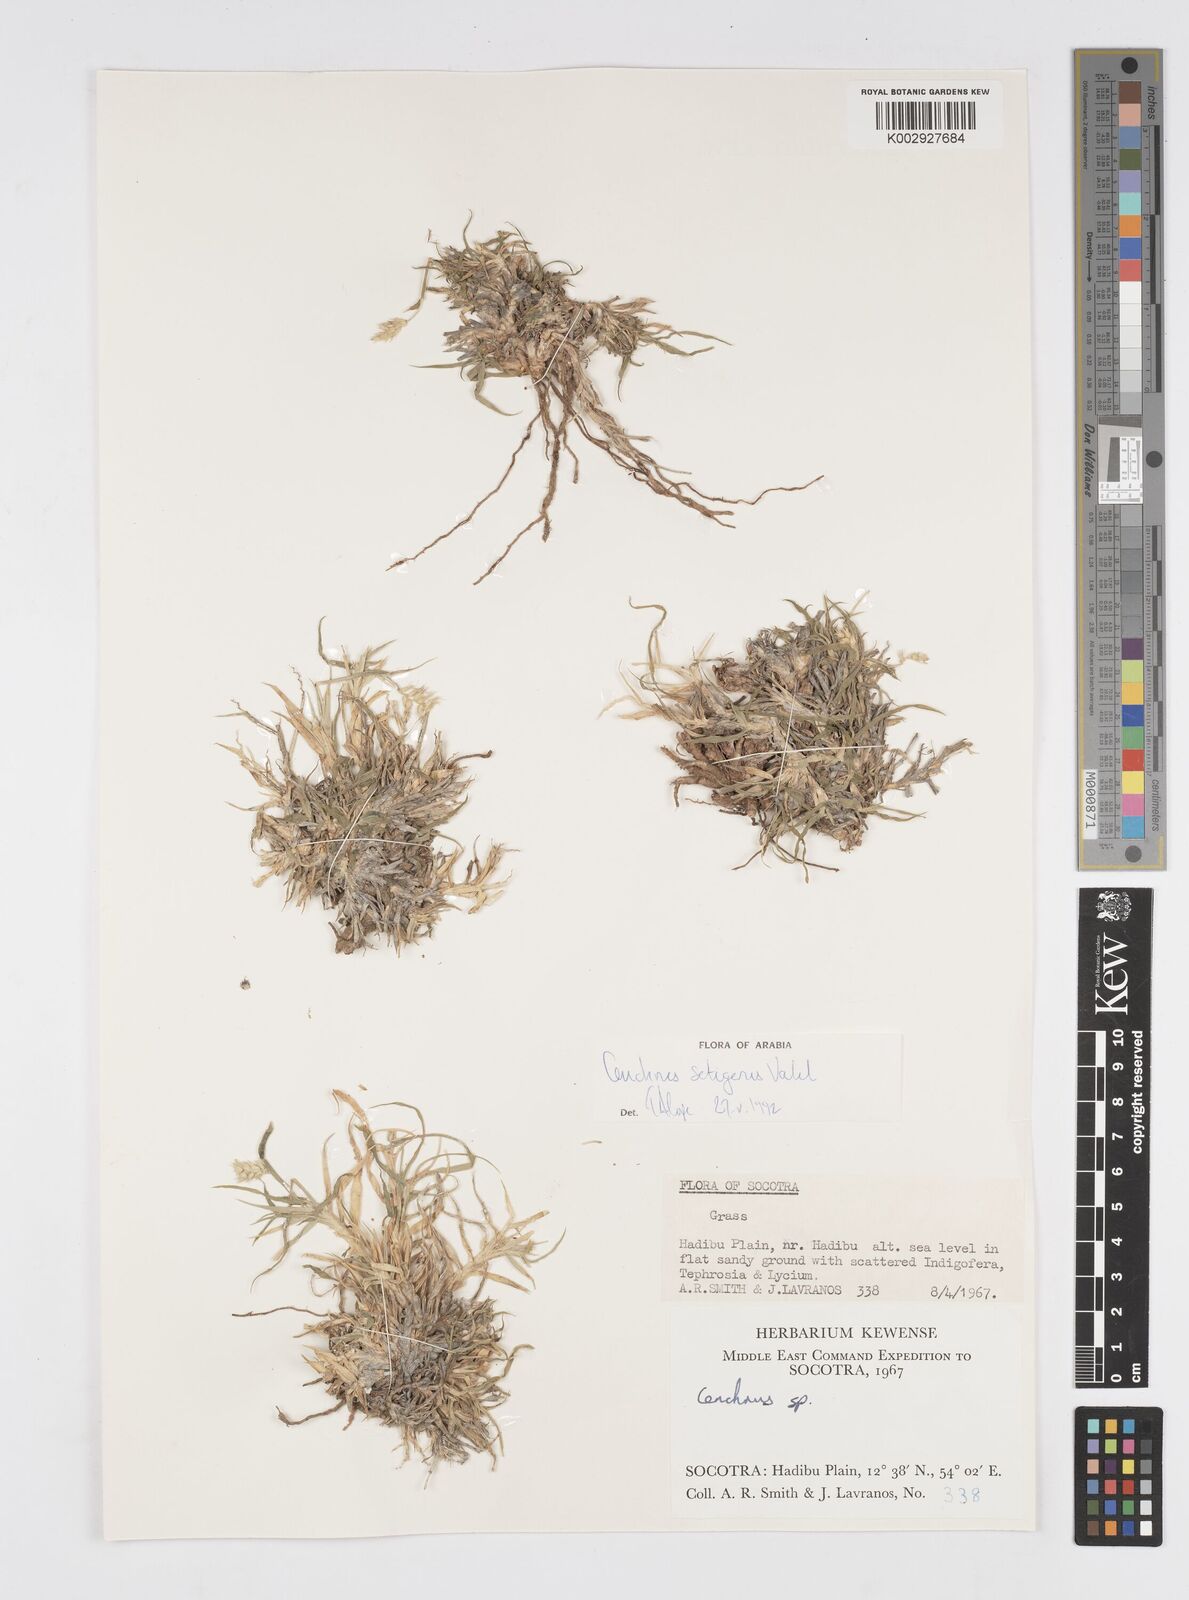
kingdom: Plantae
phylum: Tracheophyta
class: Liliopsida
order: Poales
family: Poaceae
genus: Cenchrus
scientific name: Cenchrus setigerus
